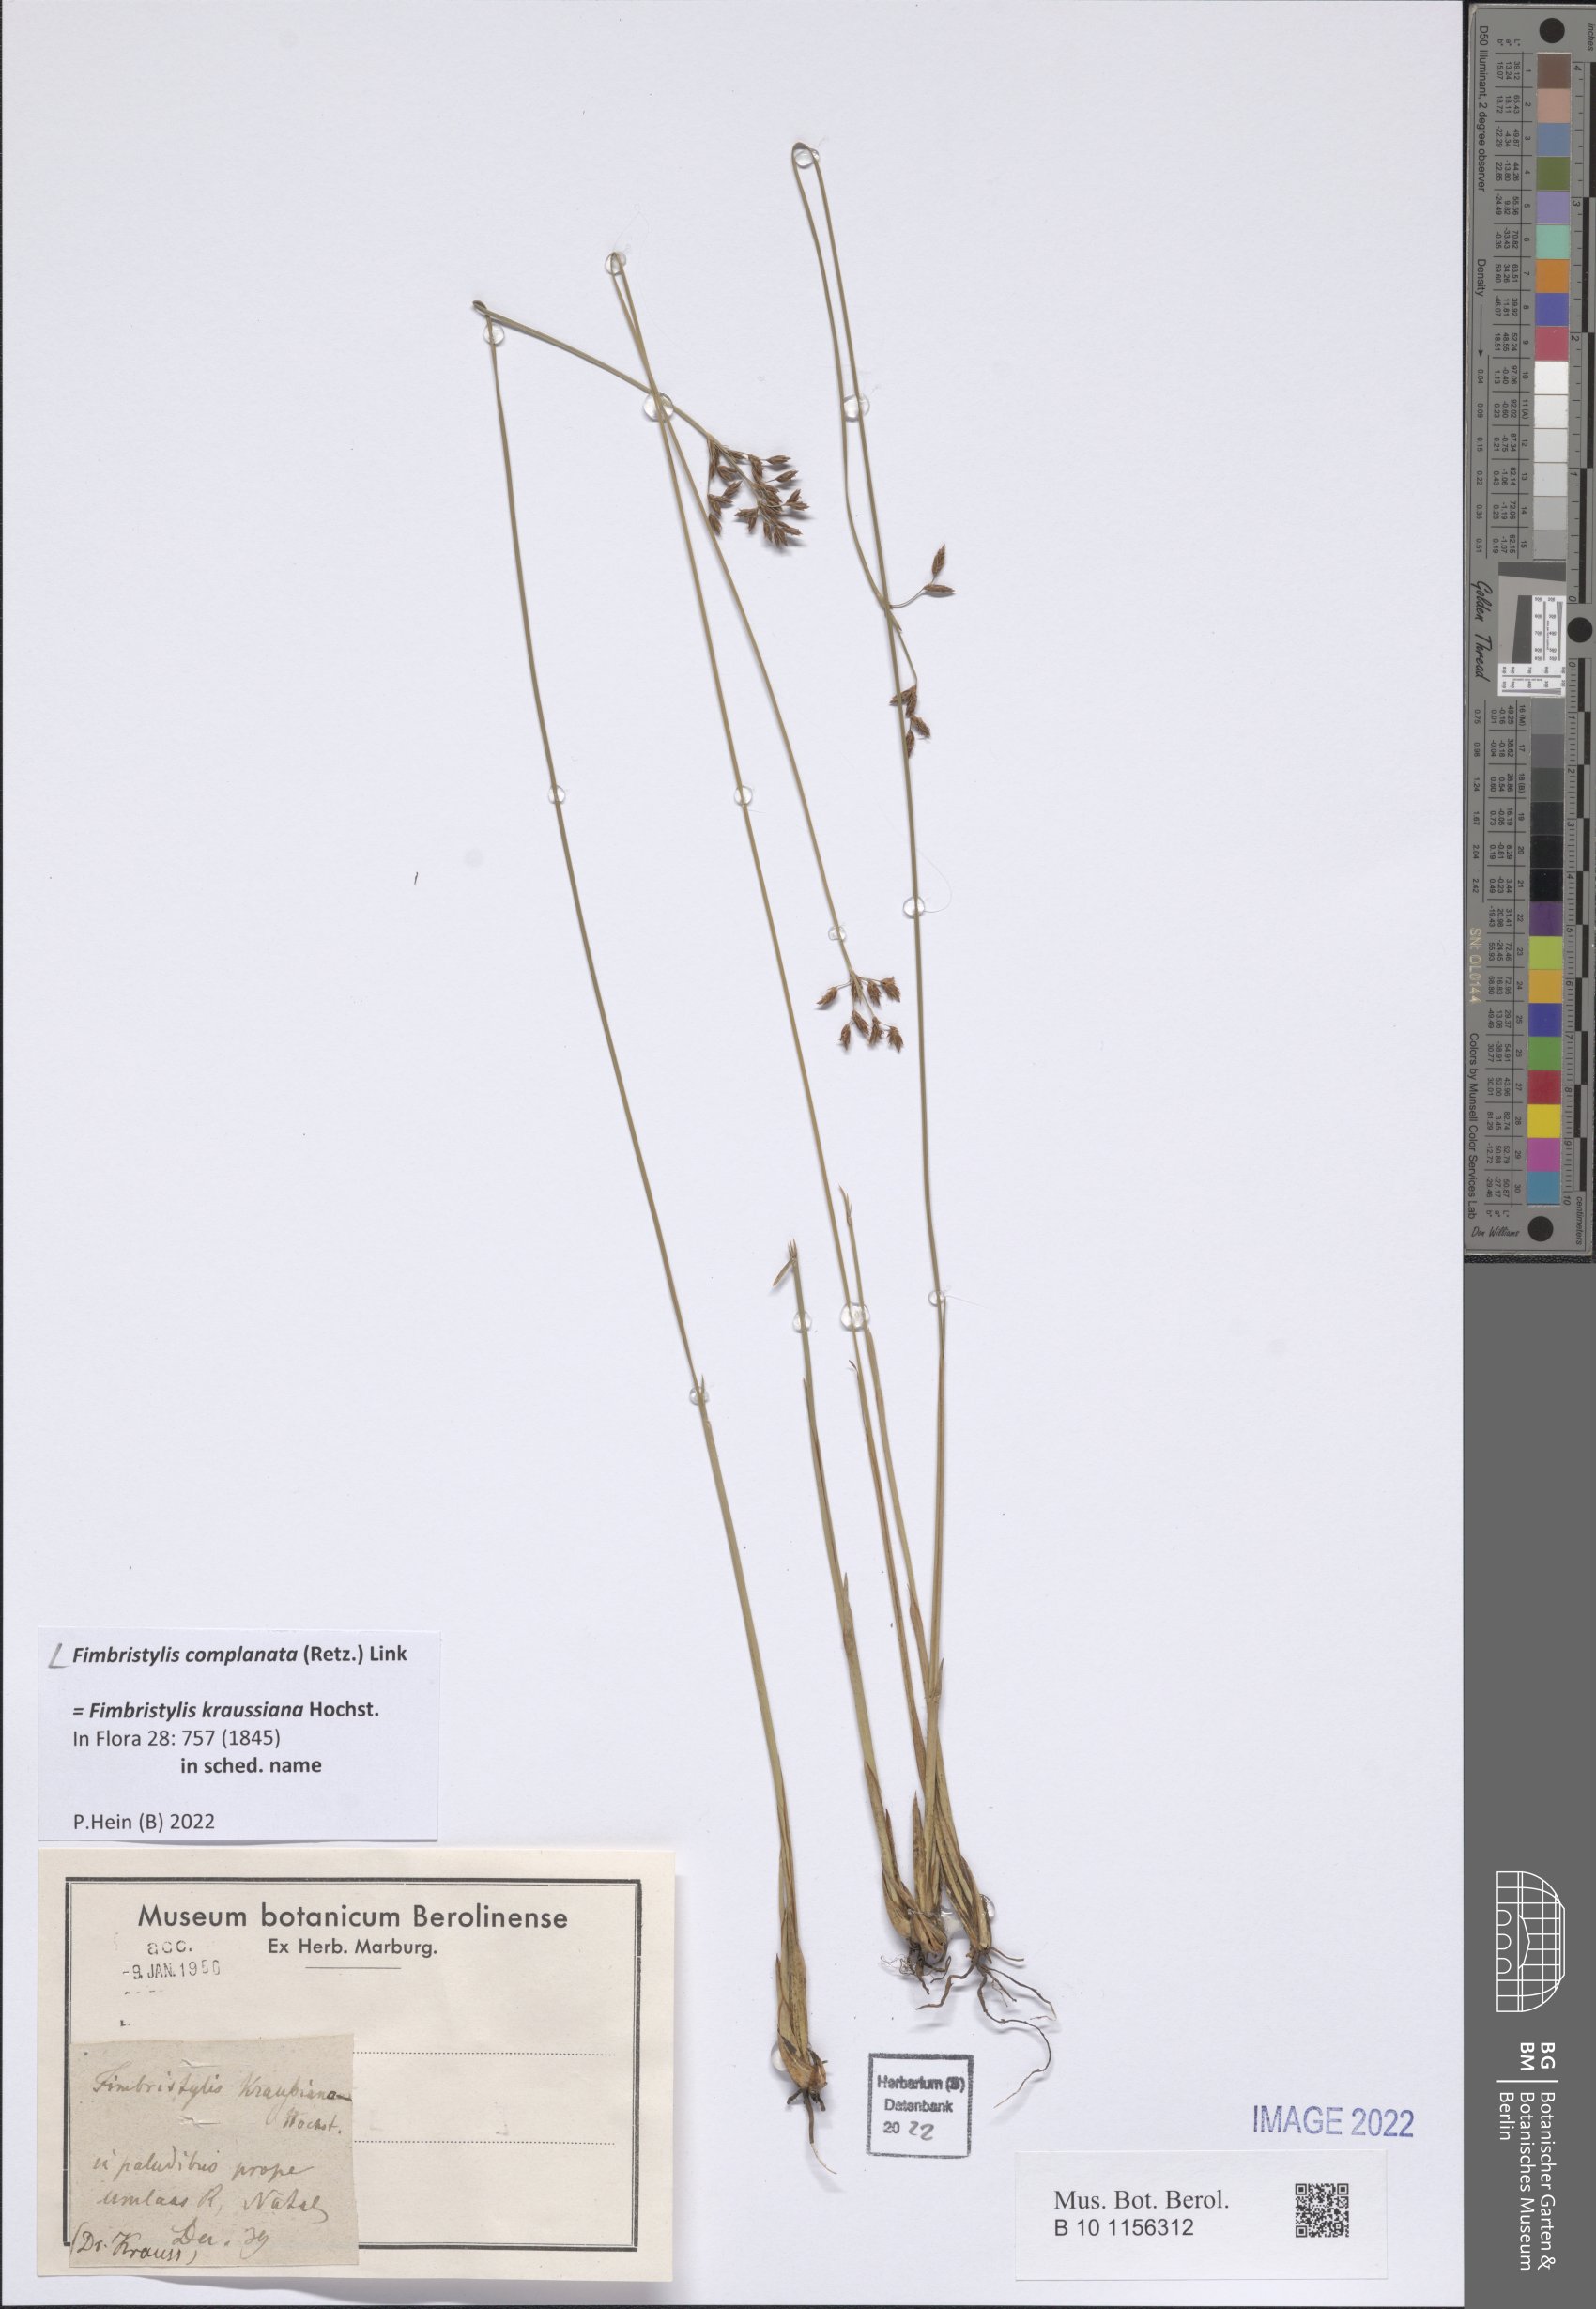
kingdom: Plantae
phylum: Tracheophyta
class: Liliopsida
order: Poales
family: Cyperaceae
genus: Fimbristylis
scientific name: Fimbristylis complanata
